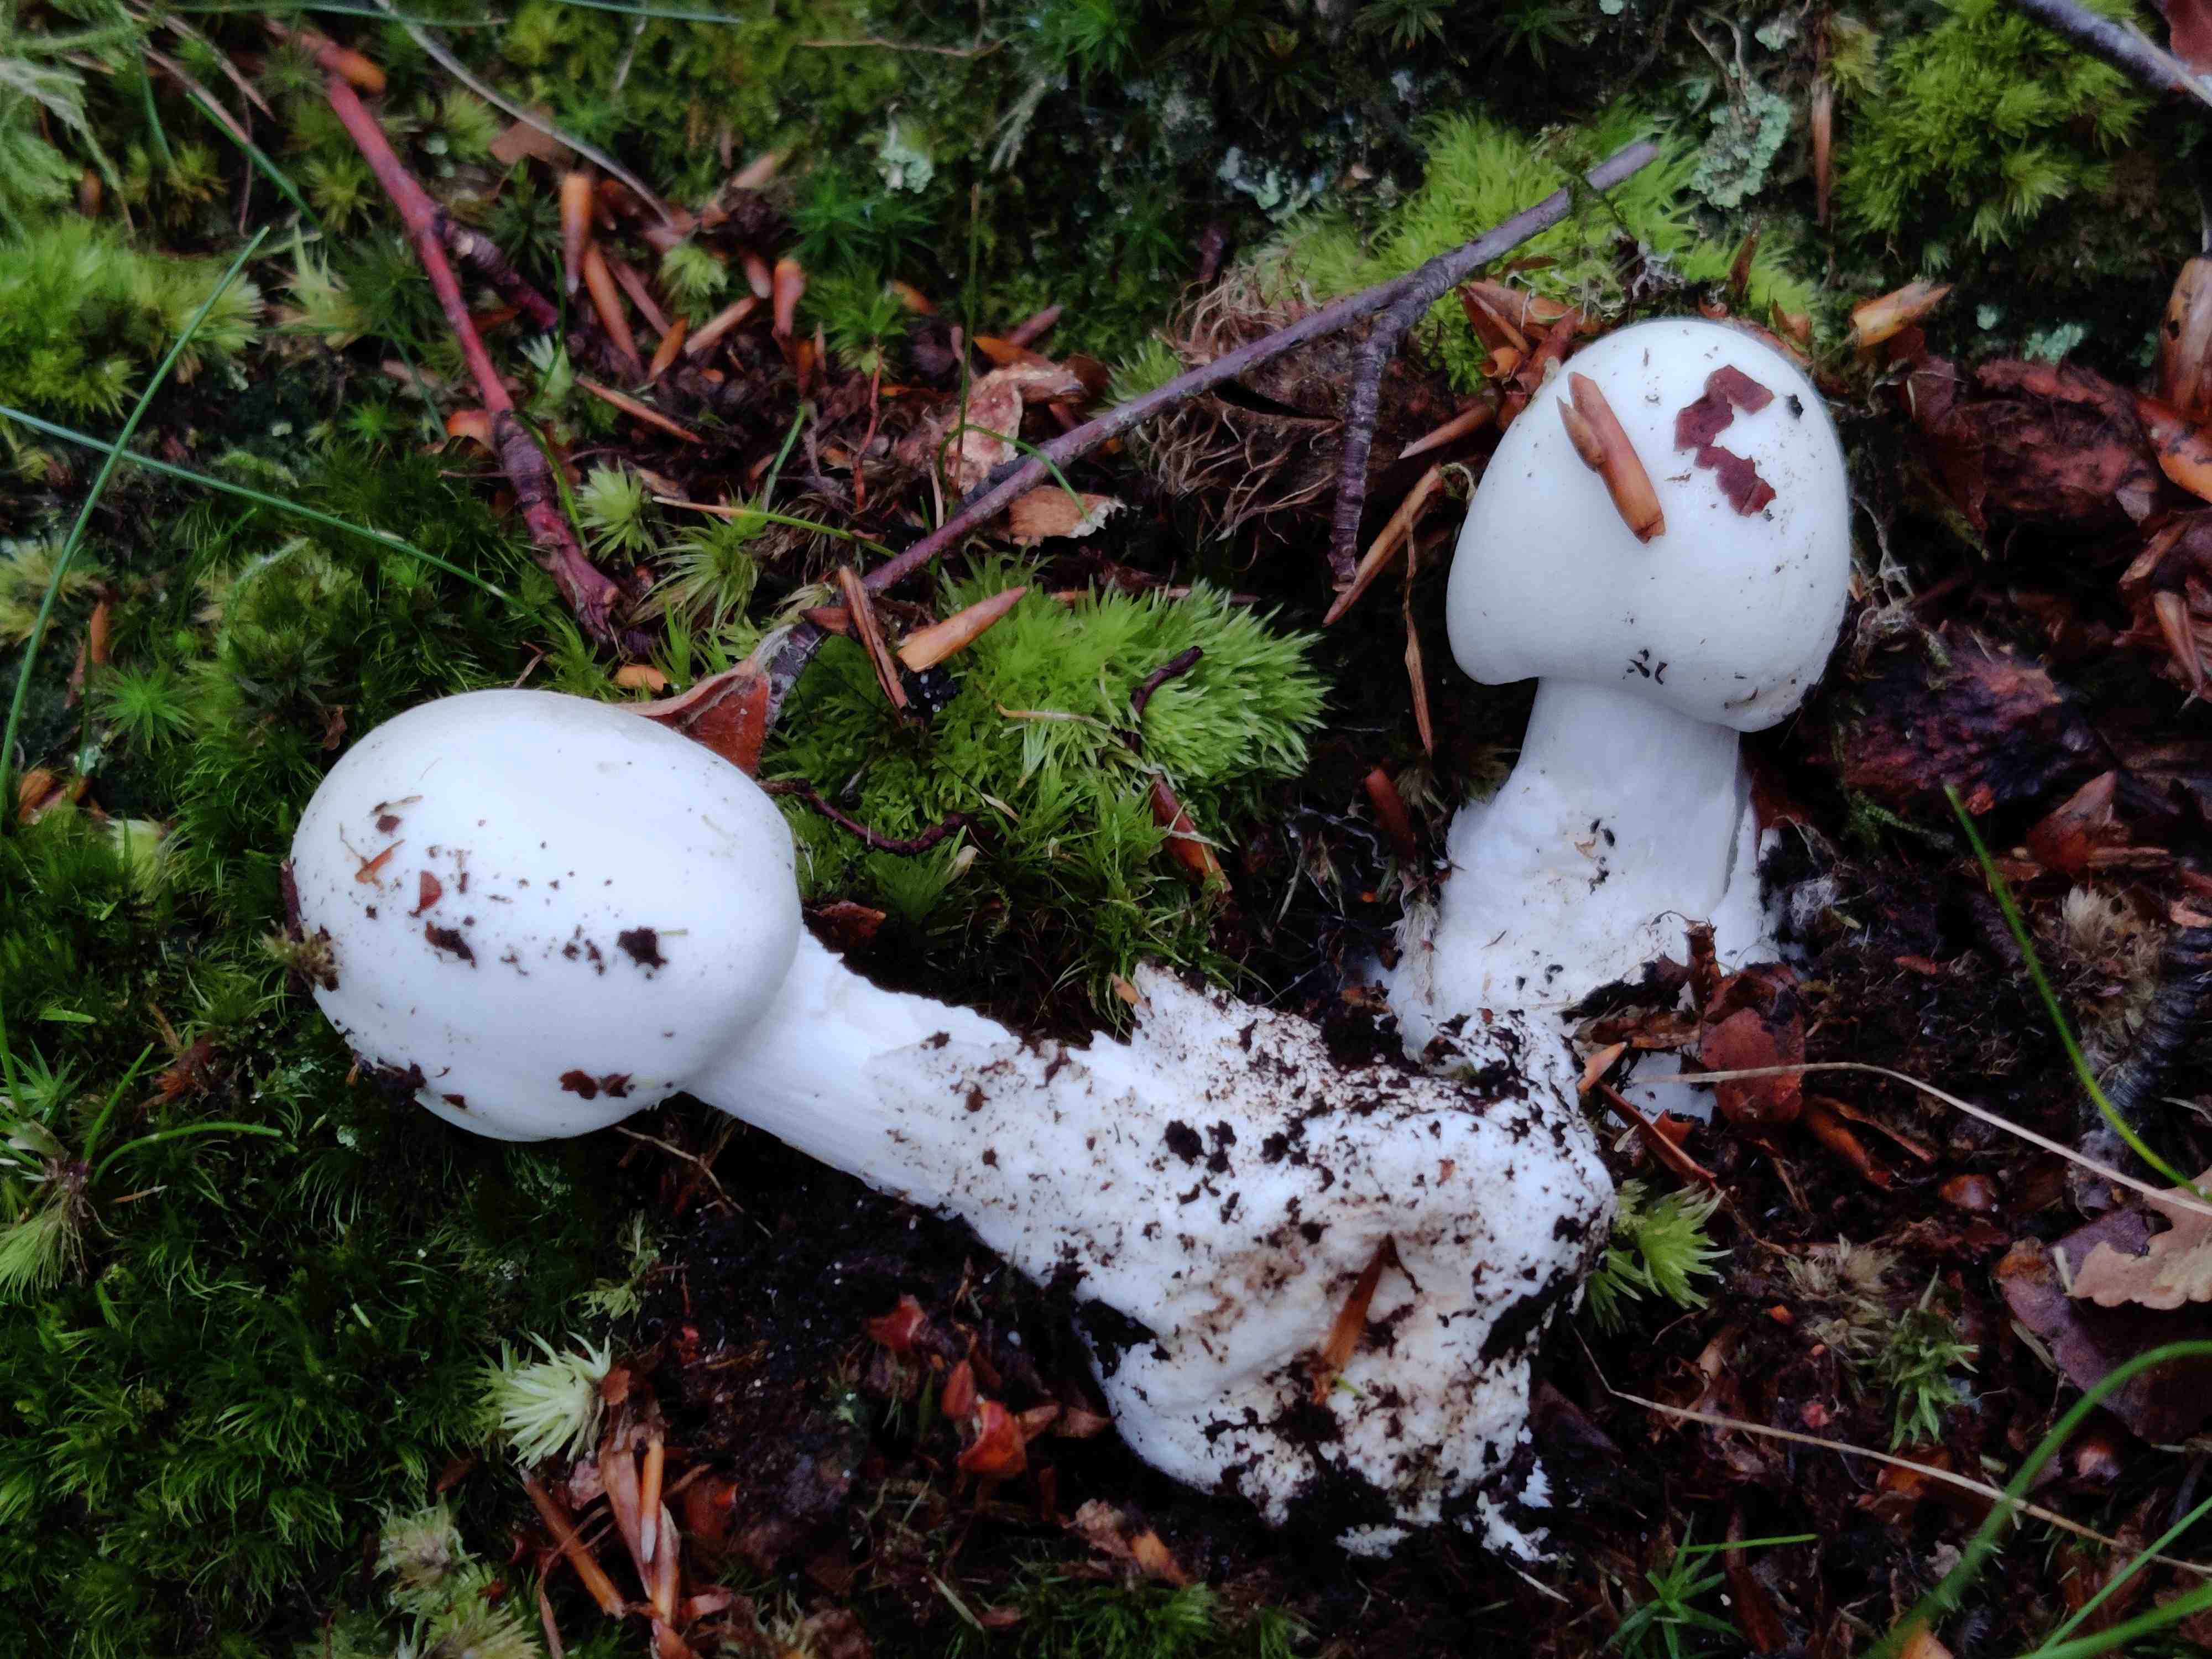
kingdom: Fungi
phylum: Basidiomycota
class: Agaricomycetes
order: Agaricales
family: Amanitaceae
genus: Amanita
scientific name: Amanita virosa
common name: snehvid fluesvamp
